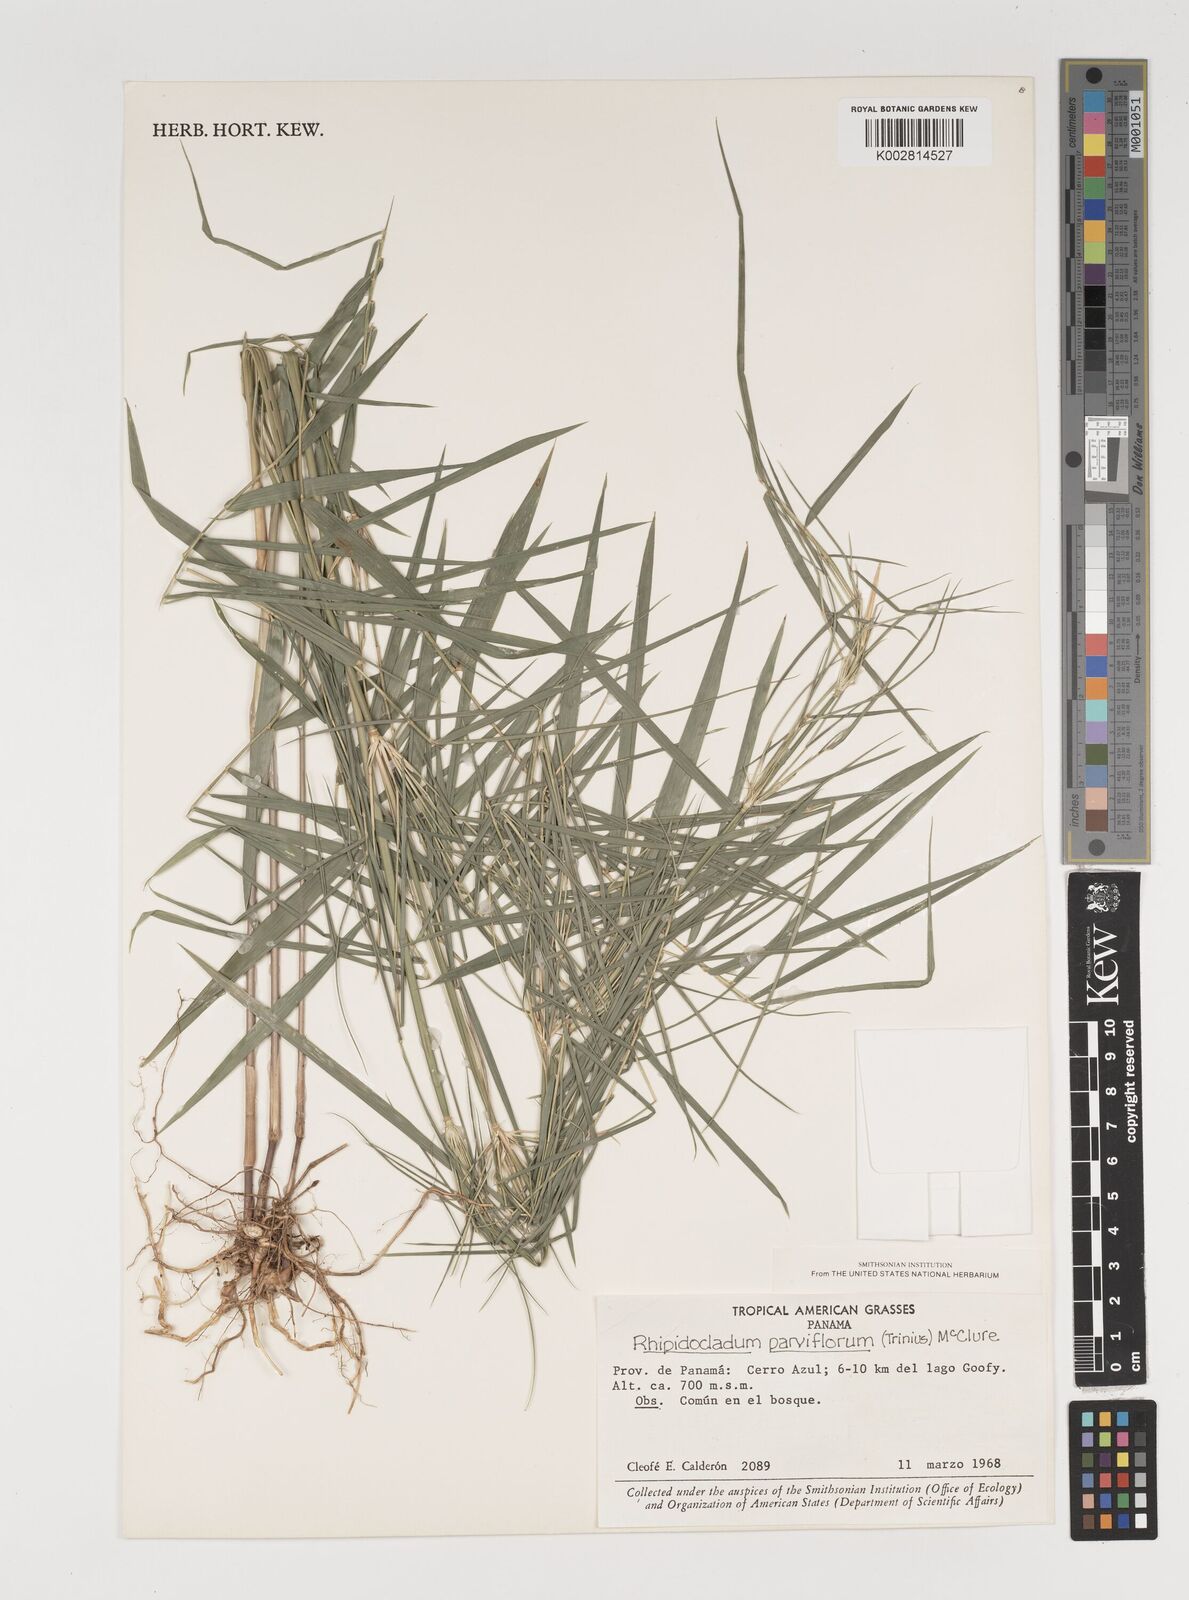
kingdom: Plantae
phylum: Tracheophyta
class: Liliopsida
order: Poales
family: Poaceae
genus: Rhipidocladum
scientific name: Rhipidocladum
